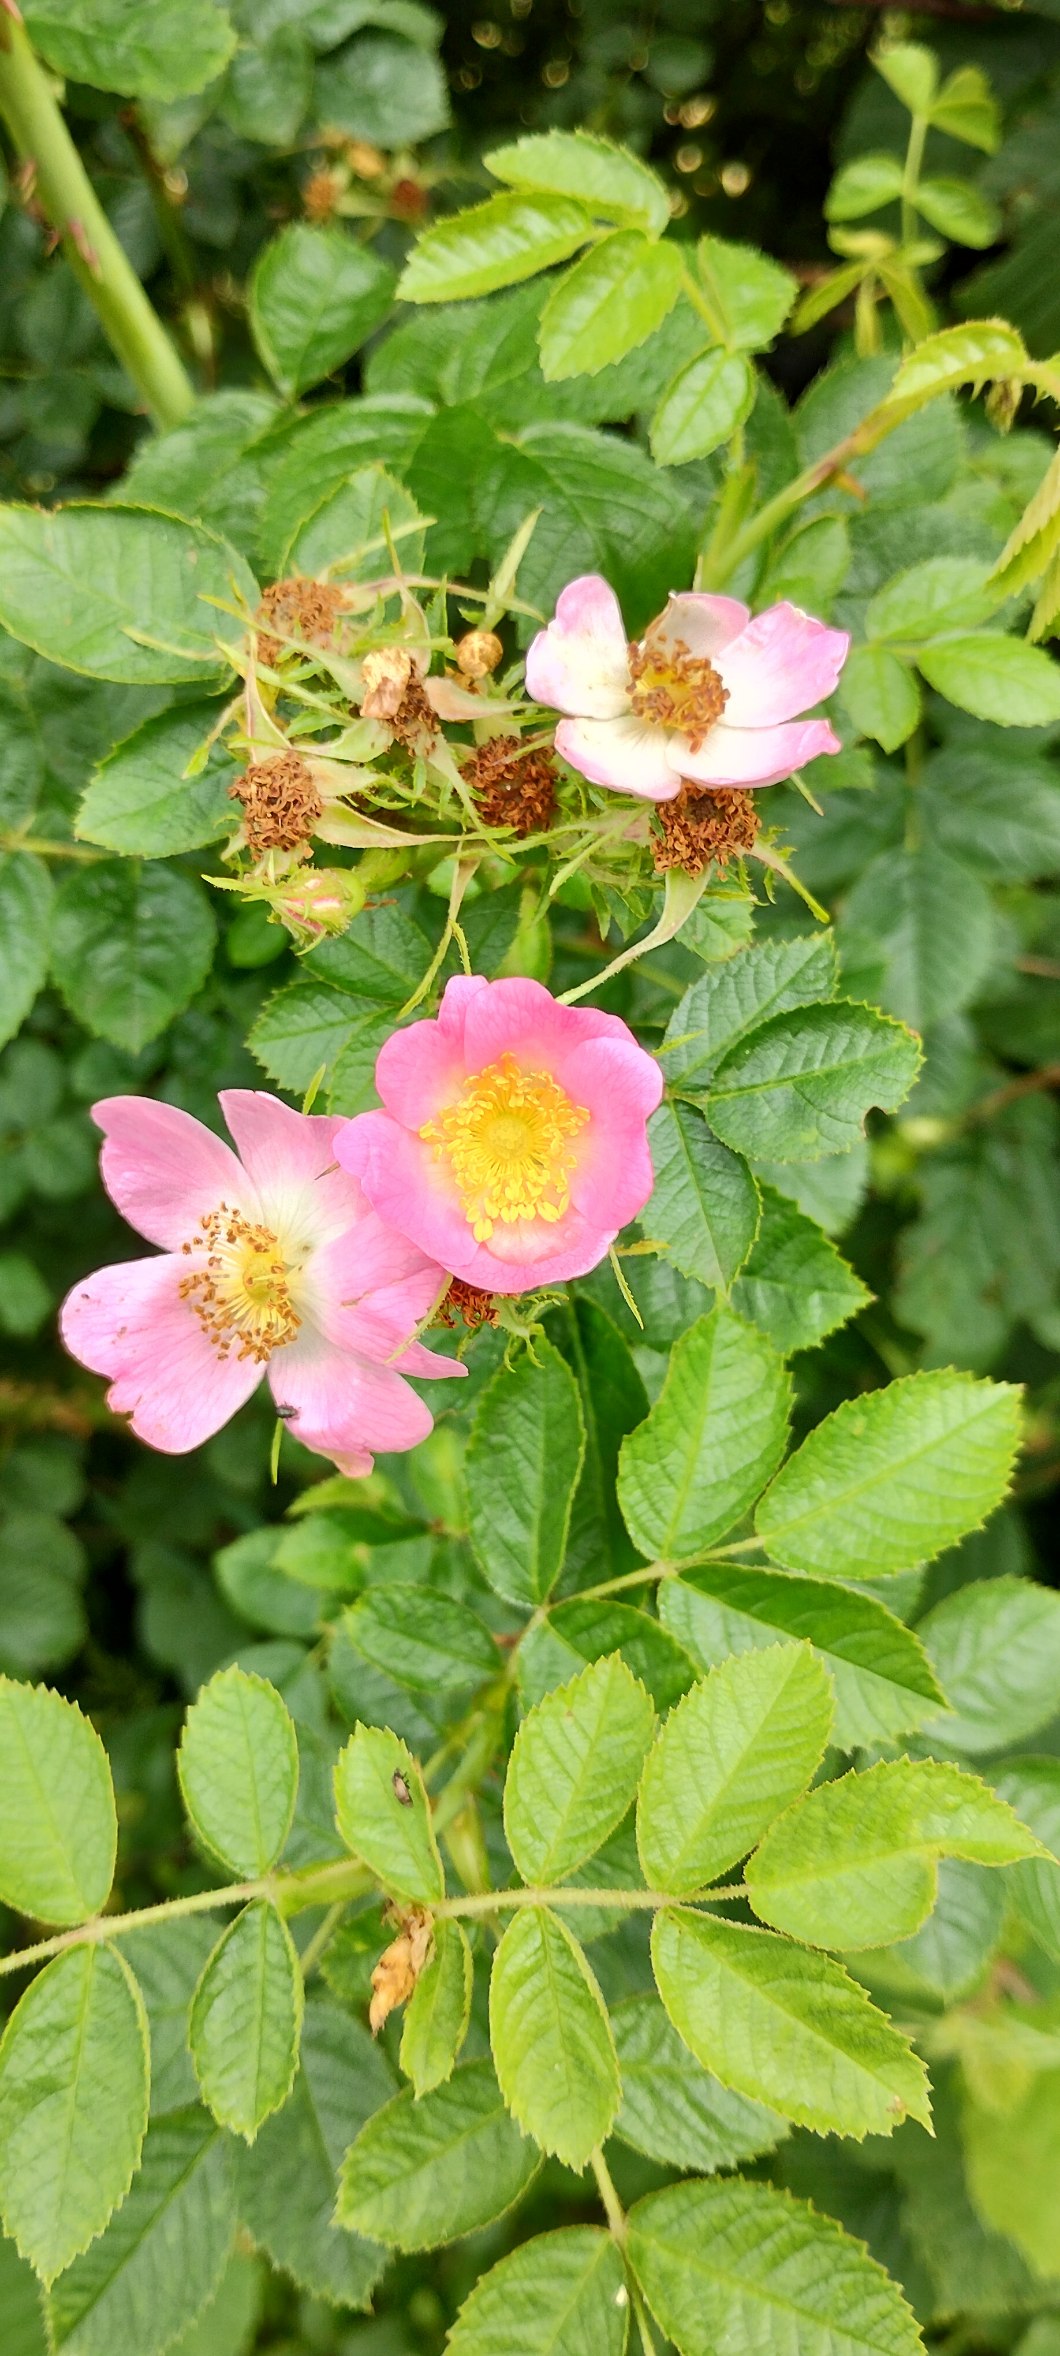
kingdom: Plantae
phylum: Tracheophyta
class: Magnoliopsida
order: Rosales
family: Rosaceae
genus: Rosa
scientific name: Rosa rubiginosa
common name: Æble-rose
